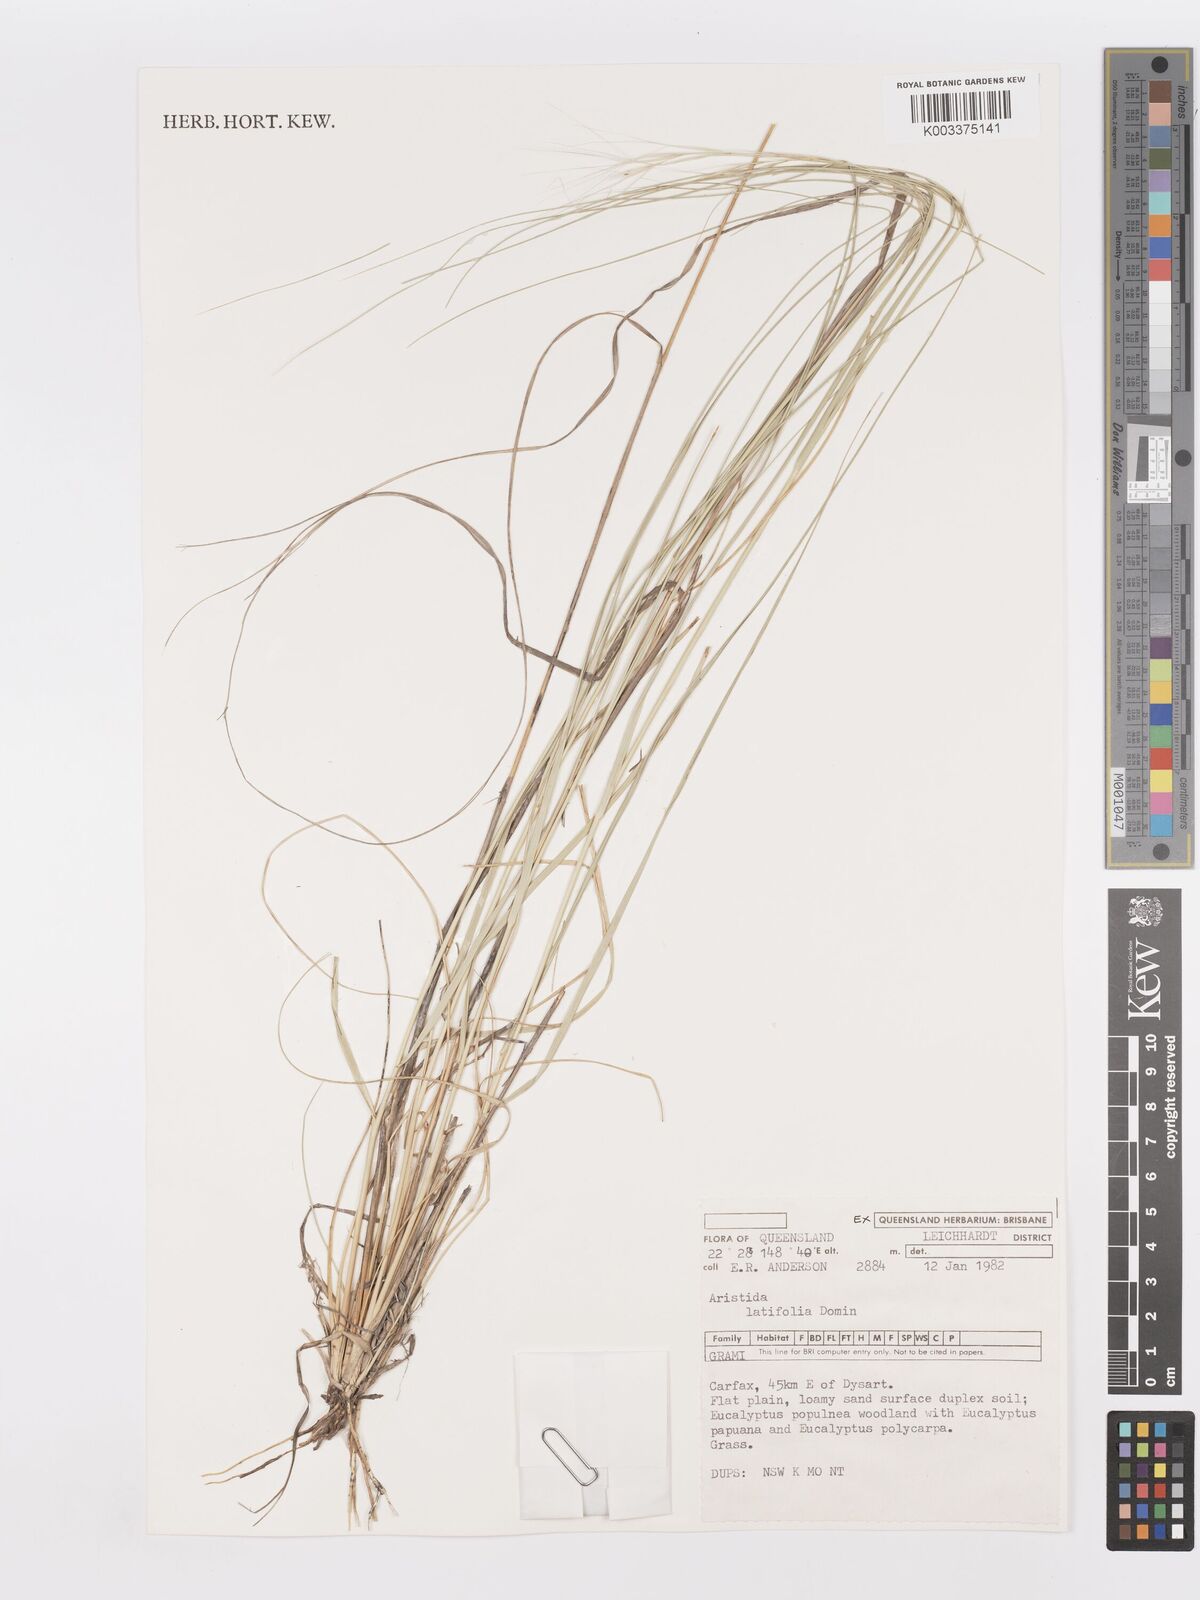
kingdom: Plantae
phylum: Tracheophyta
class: Liliopsida
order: Poales
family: Poaceae
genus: Aristida
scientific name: Aristida latifolia
